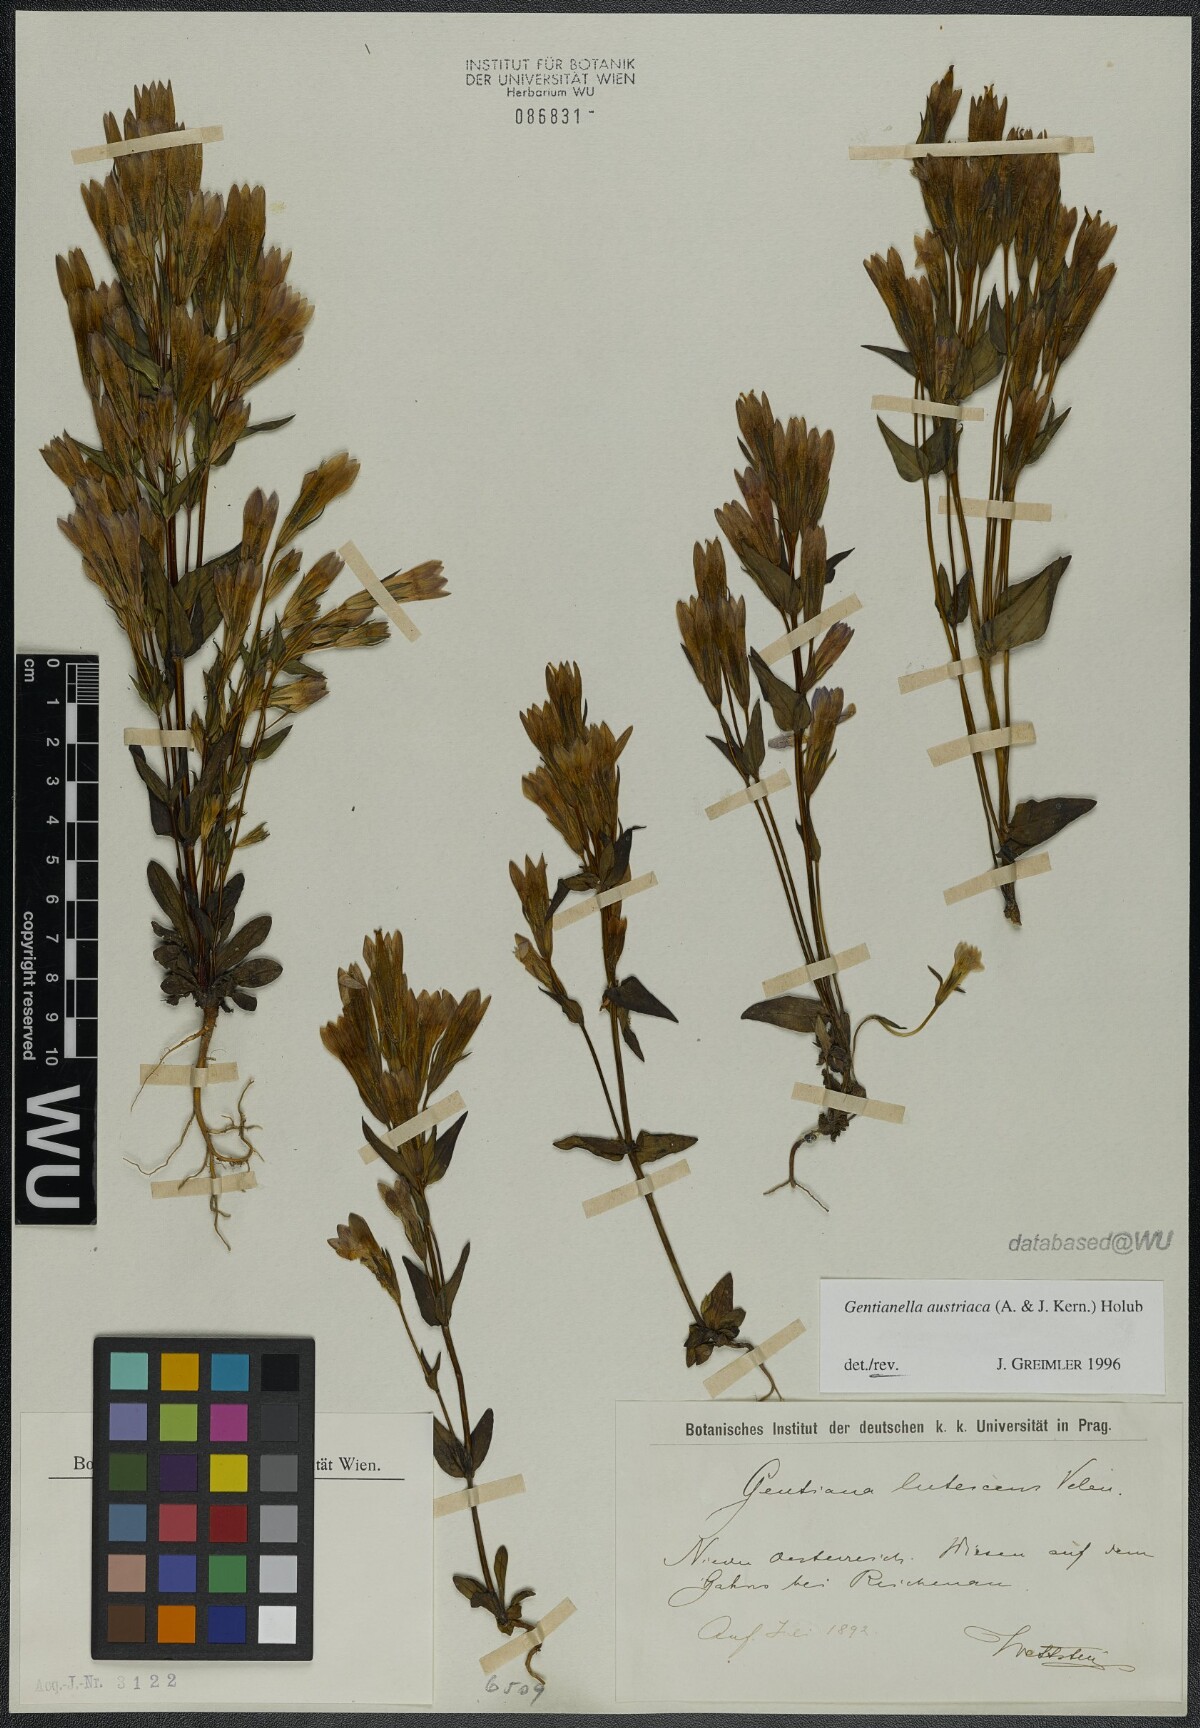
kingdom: Plantae
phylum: Tracheophyta
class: Magnoliopsida
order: Gentianales
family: Gentianaceae
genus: Gentianella
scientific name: Gentianella austriaca
